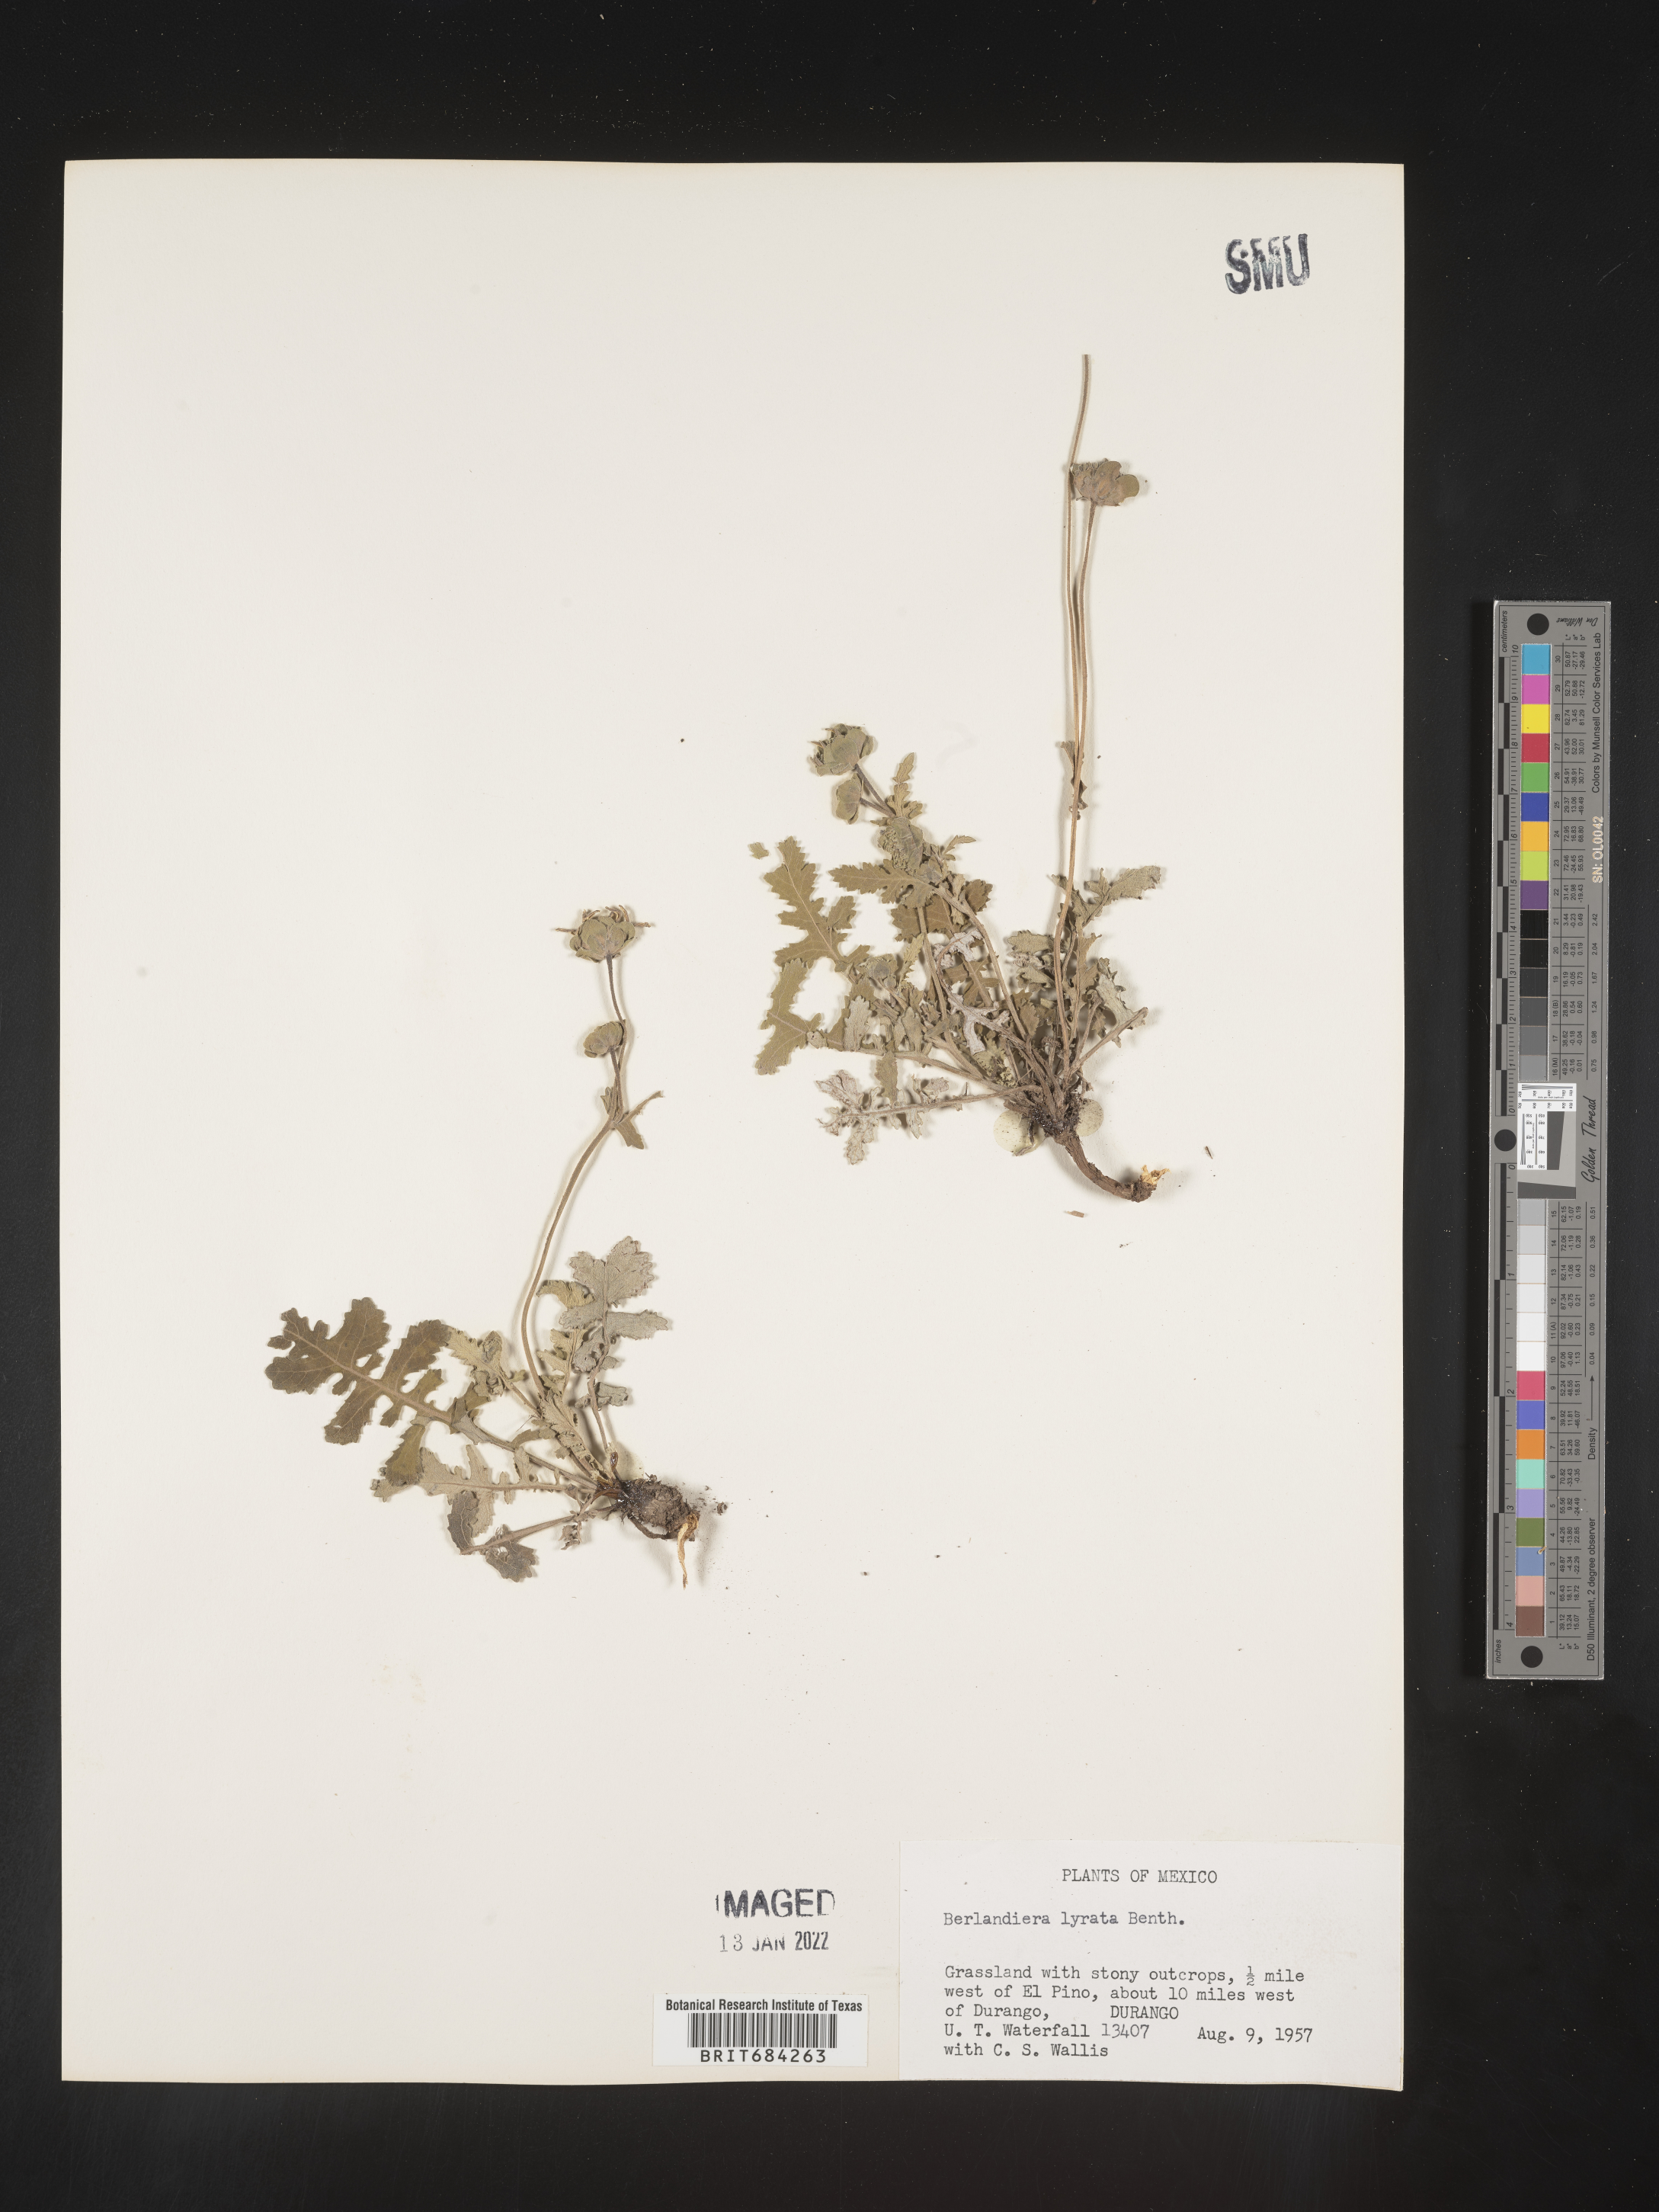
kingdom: Plantae
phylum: Tracheophyta
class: Magnoliopsida
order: Asterales
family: Asteraceae
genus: Berlandiera
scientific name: Berlandiera
